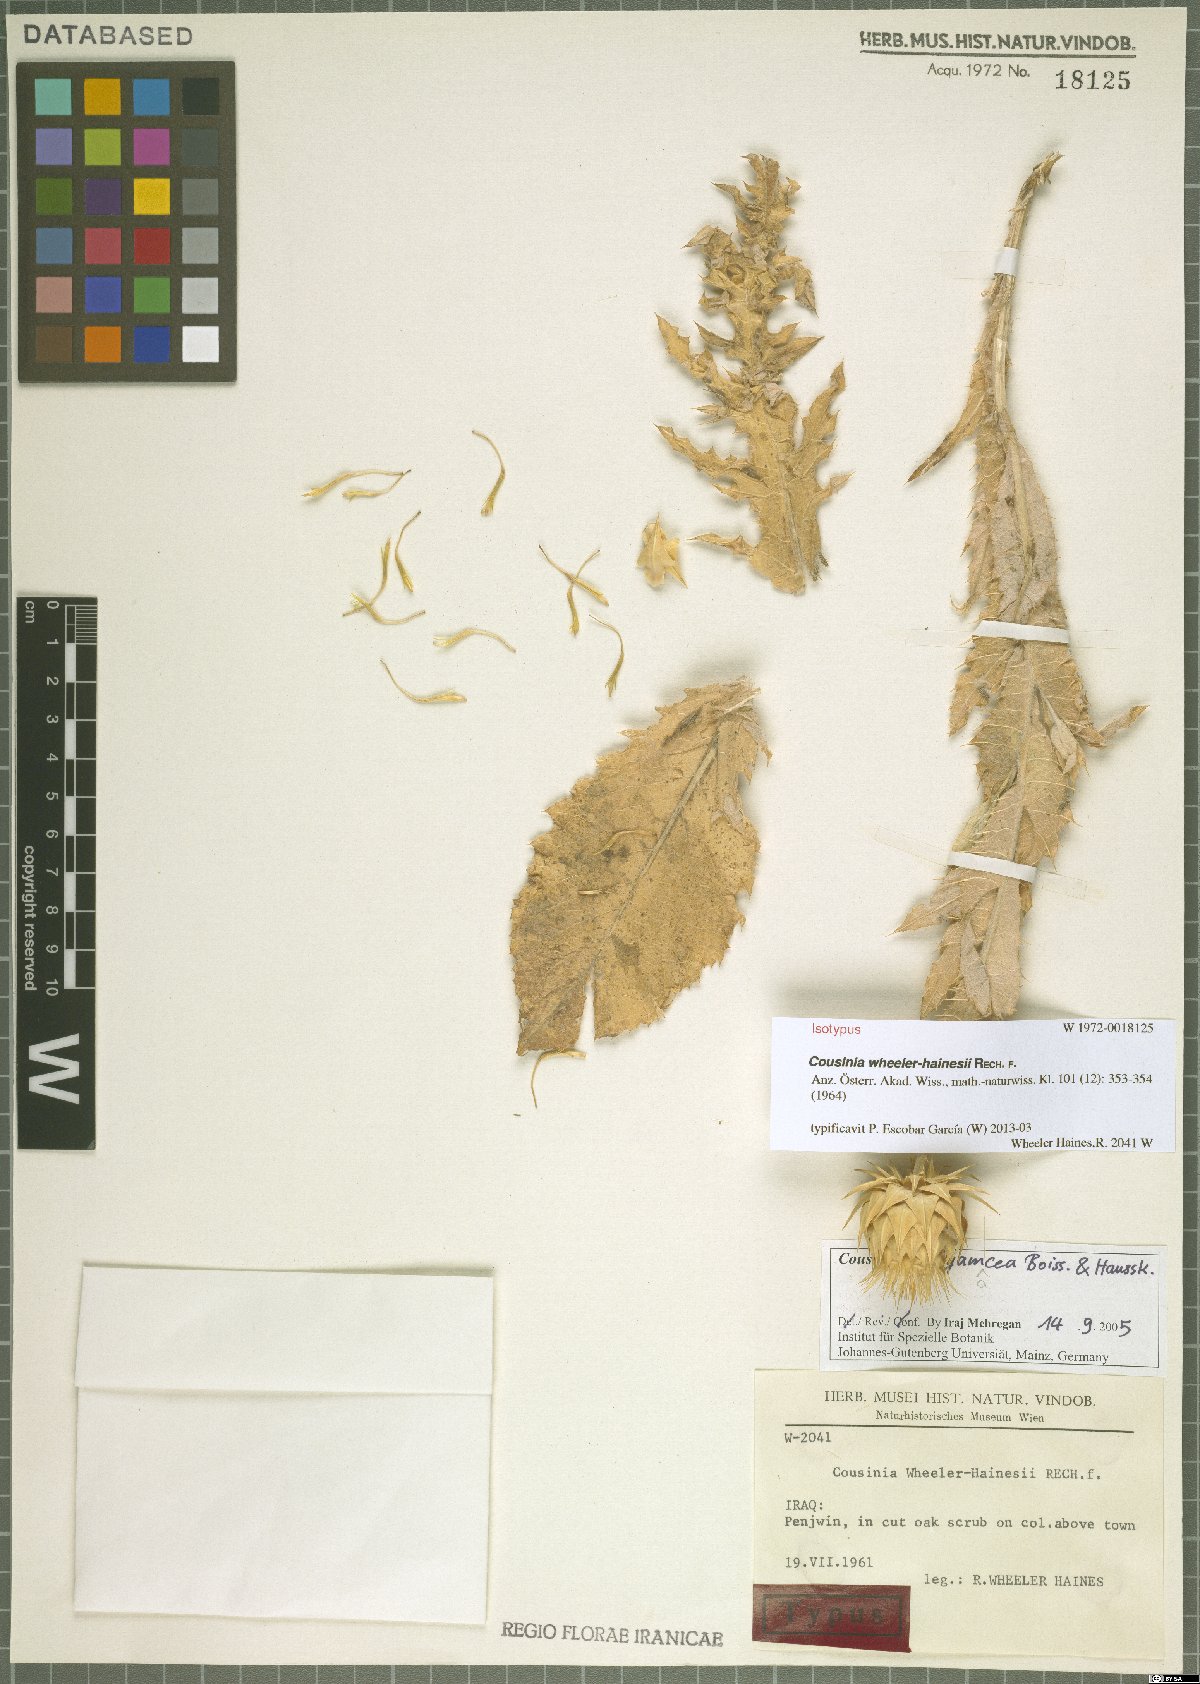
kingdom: Plantae
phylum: Tracheophyta
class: Magnoliopsida
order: Asterales
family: Asteraceae
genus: Cousinia
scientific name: Cousinia pergamacea
